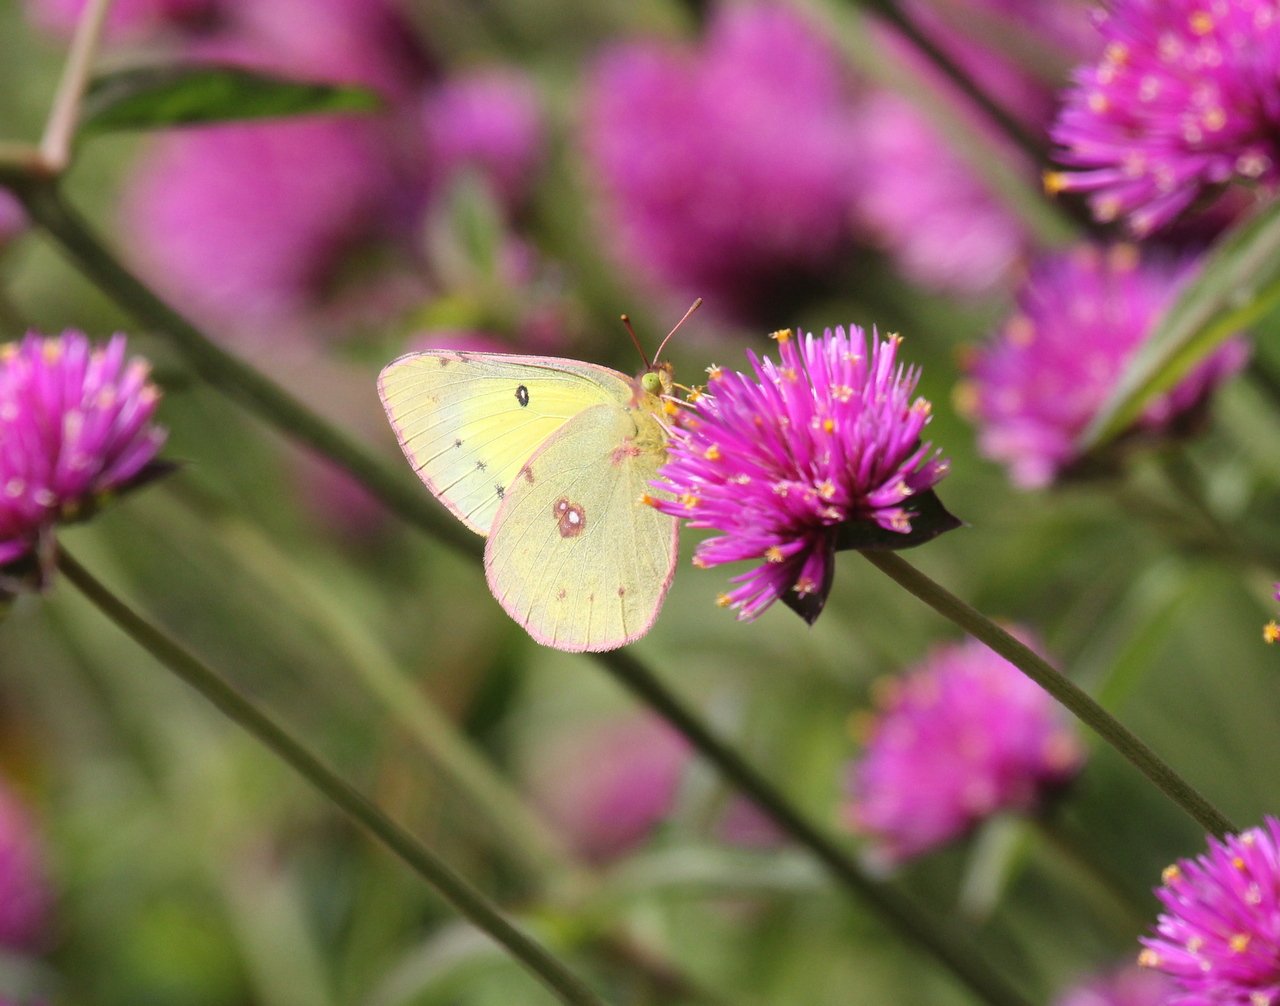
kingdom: Animalia
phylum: Arthropoda
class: Insecta
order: Lepidoptera
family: Pieridae
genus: Colias
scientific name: Colias philodice
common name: Clouded Sulphur
